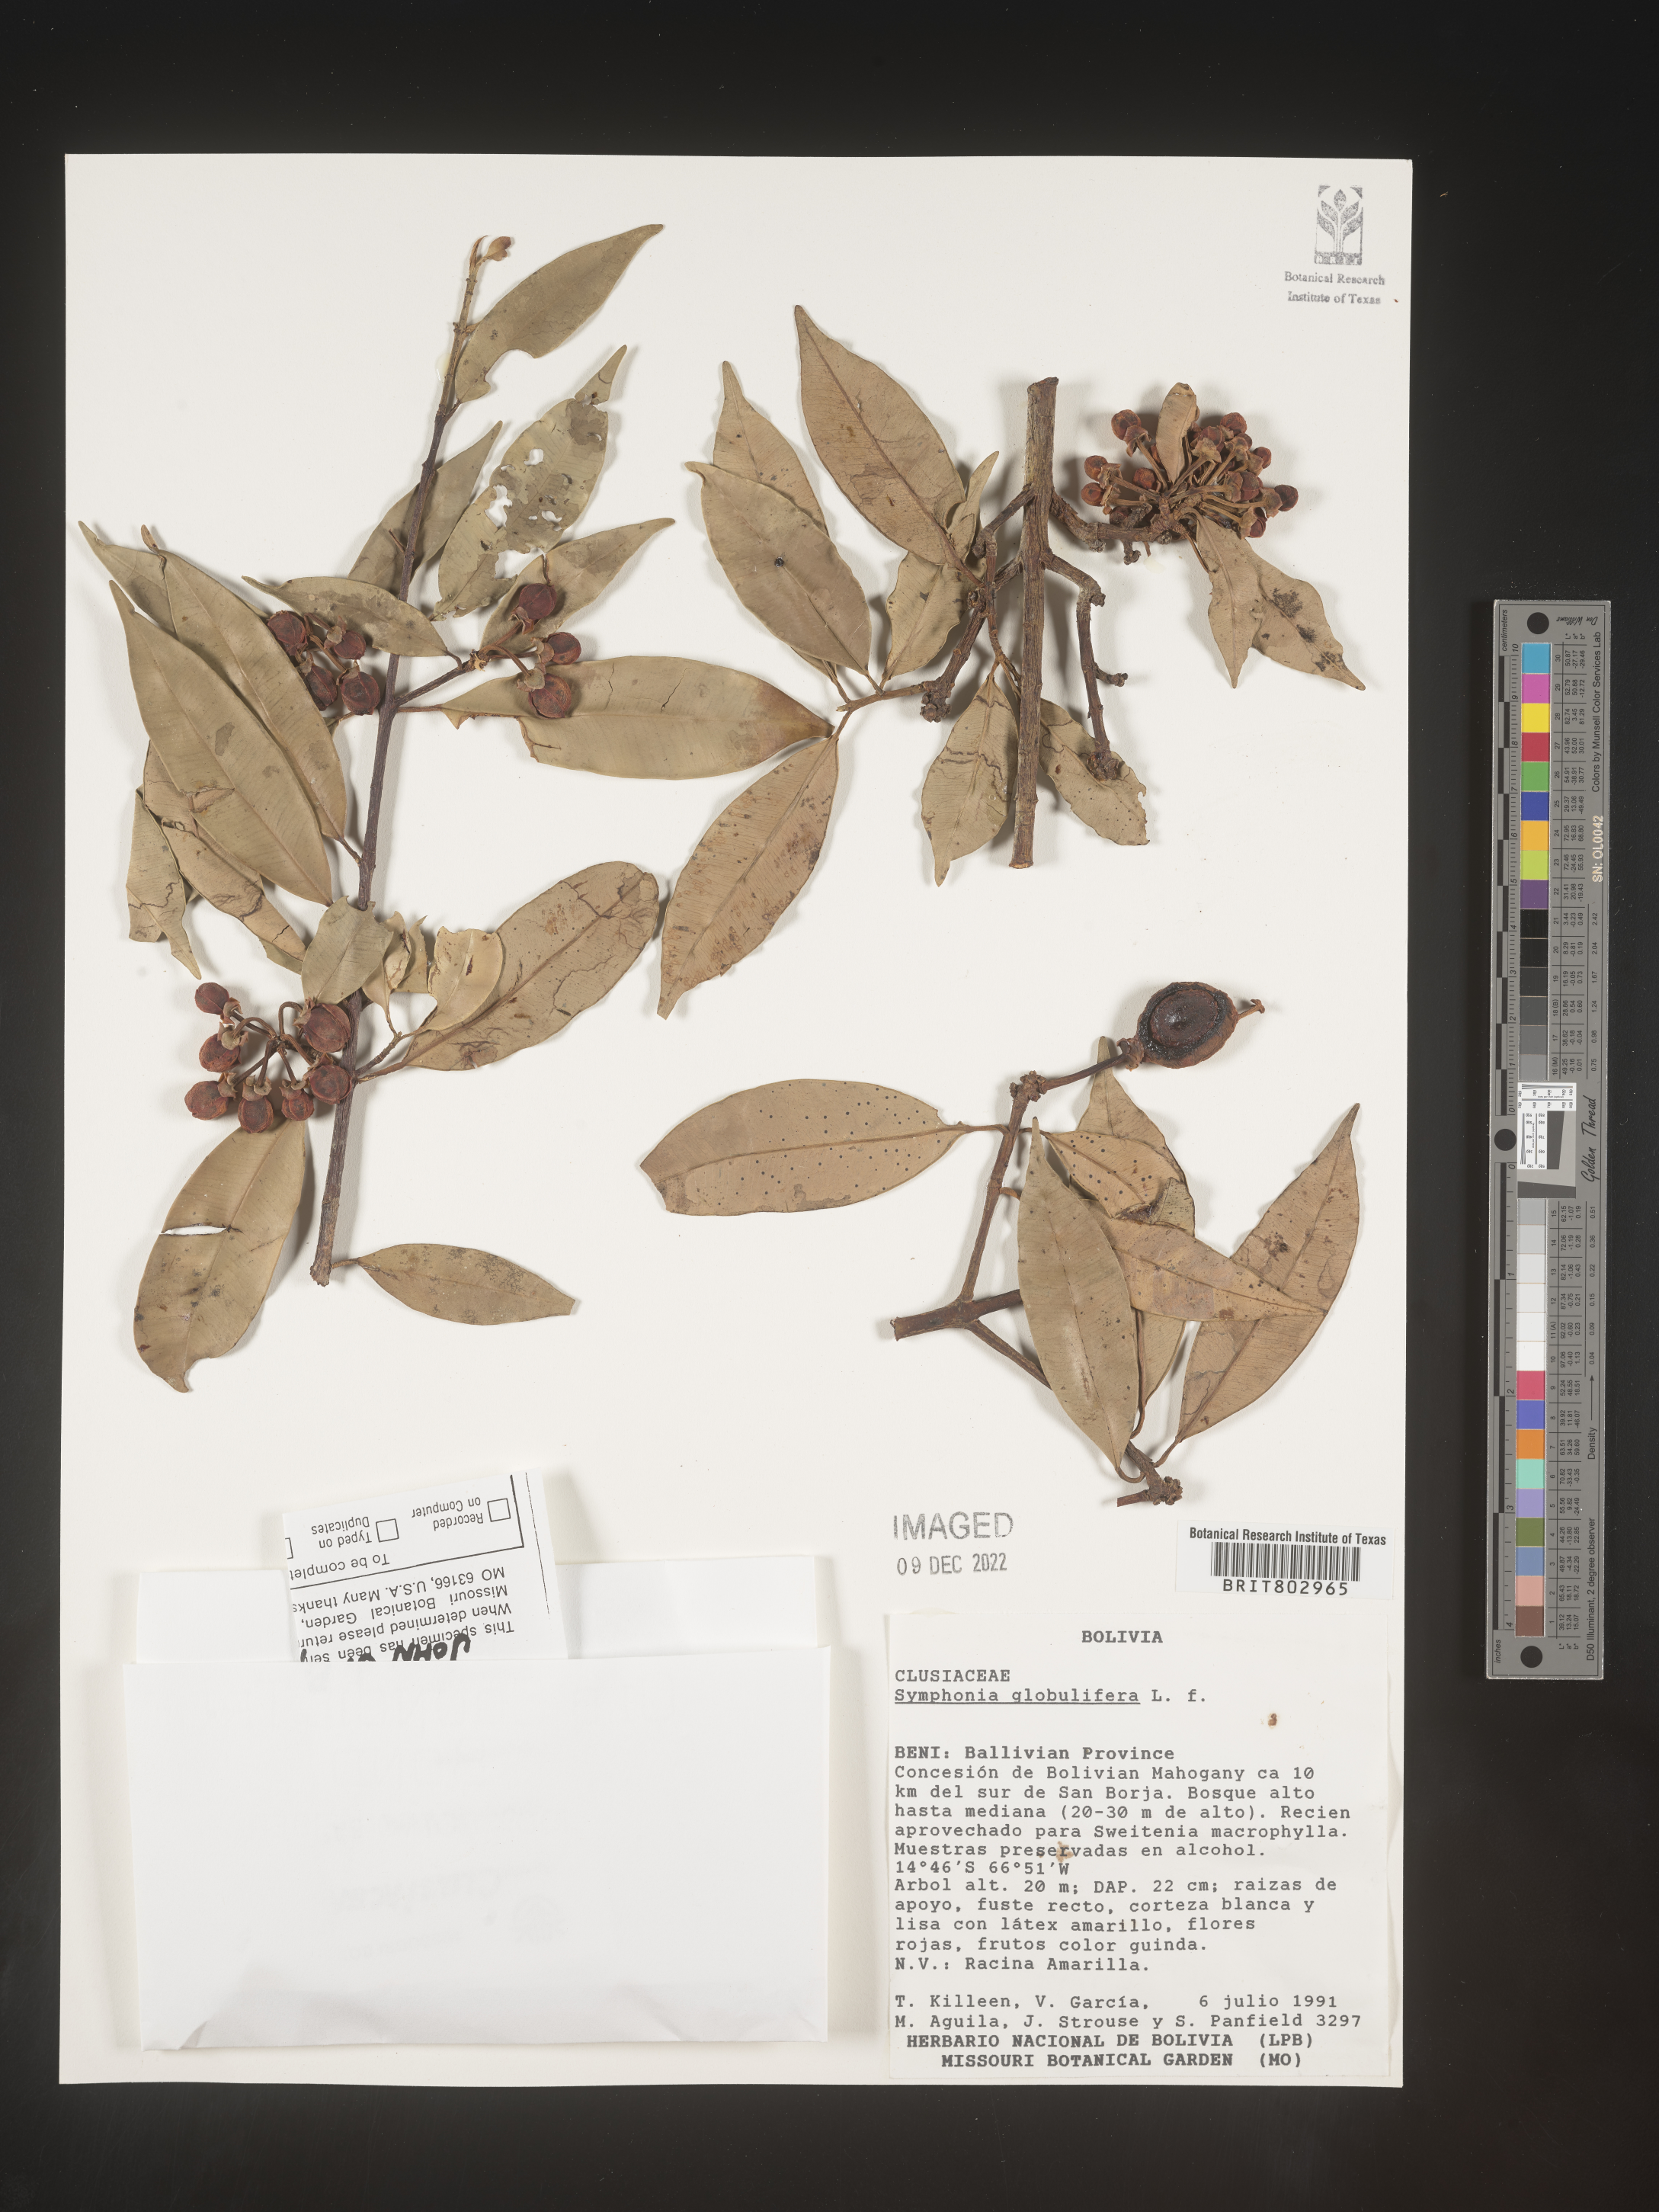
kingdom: Plantae
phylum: Tracheophyta
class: Magnoliopsida
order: Malpighiales
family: Clusiaceae
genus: Symphonia
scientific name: Symphonia
